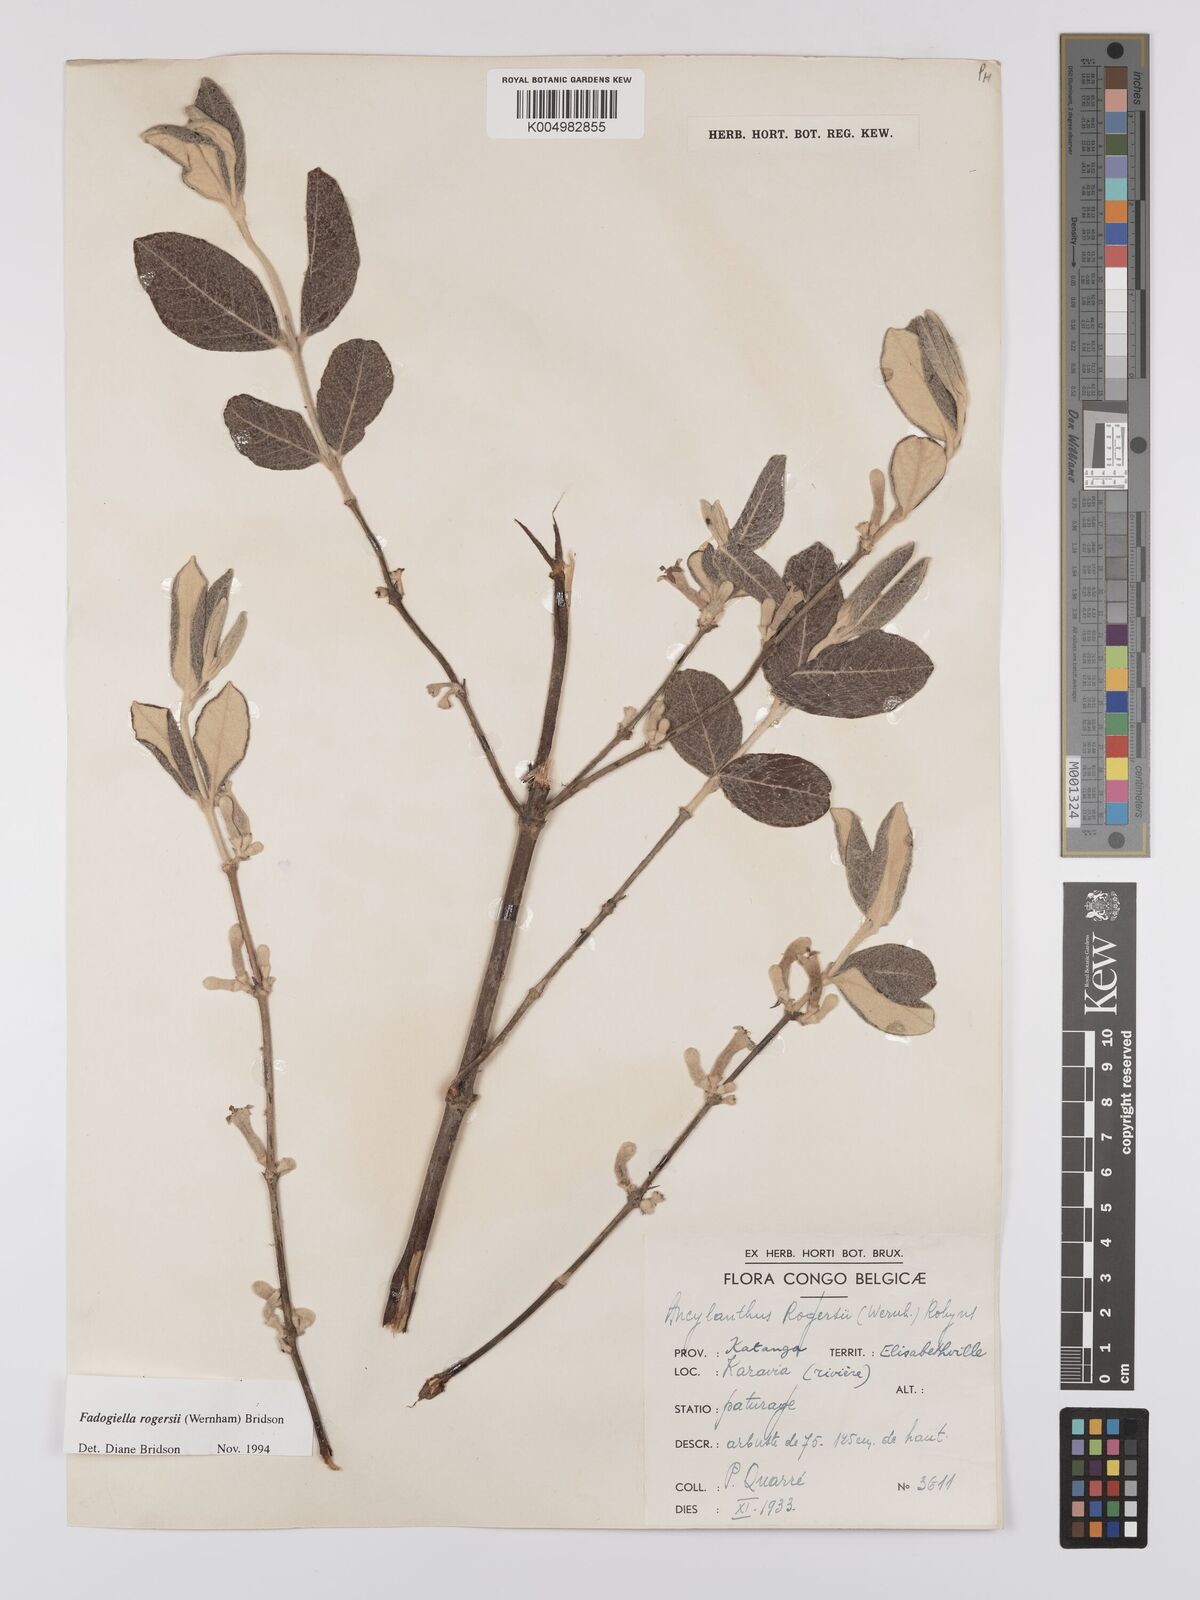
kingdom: Plantae
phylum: Tracheophyta
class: Magnoliopsida
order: Gentianales
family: Rubiaceae
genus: Fadogiella
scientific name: Fadogiella rogersii
